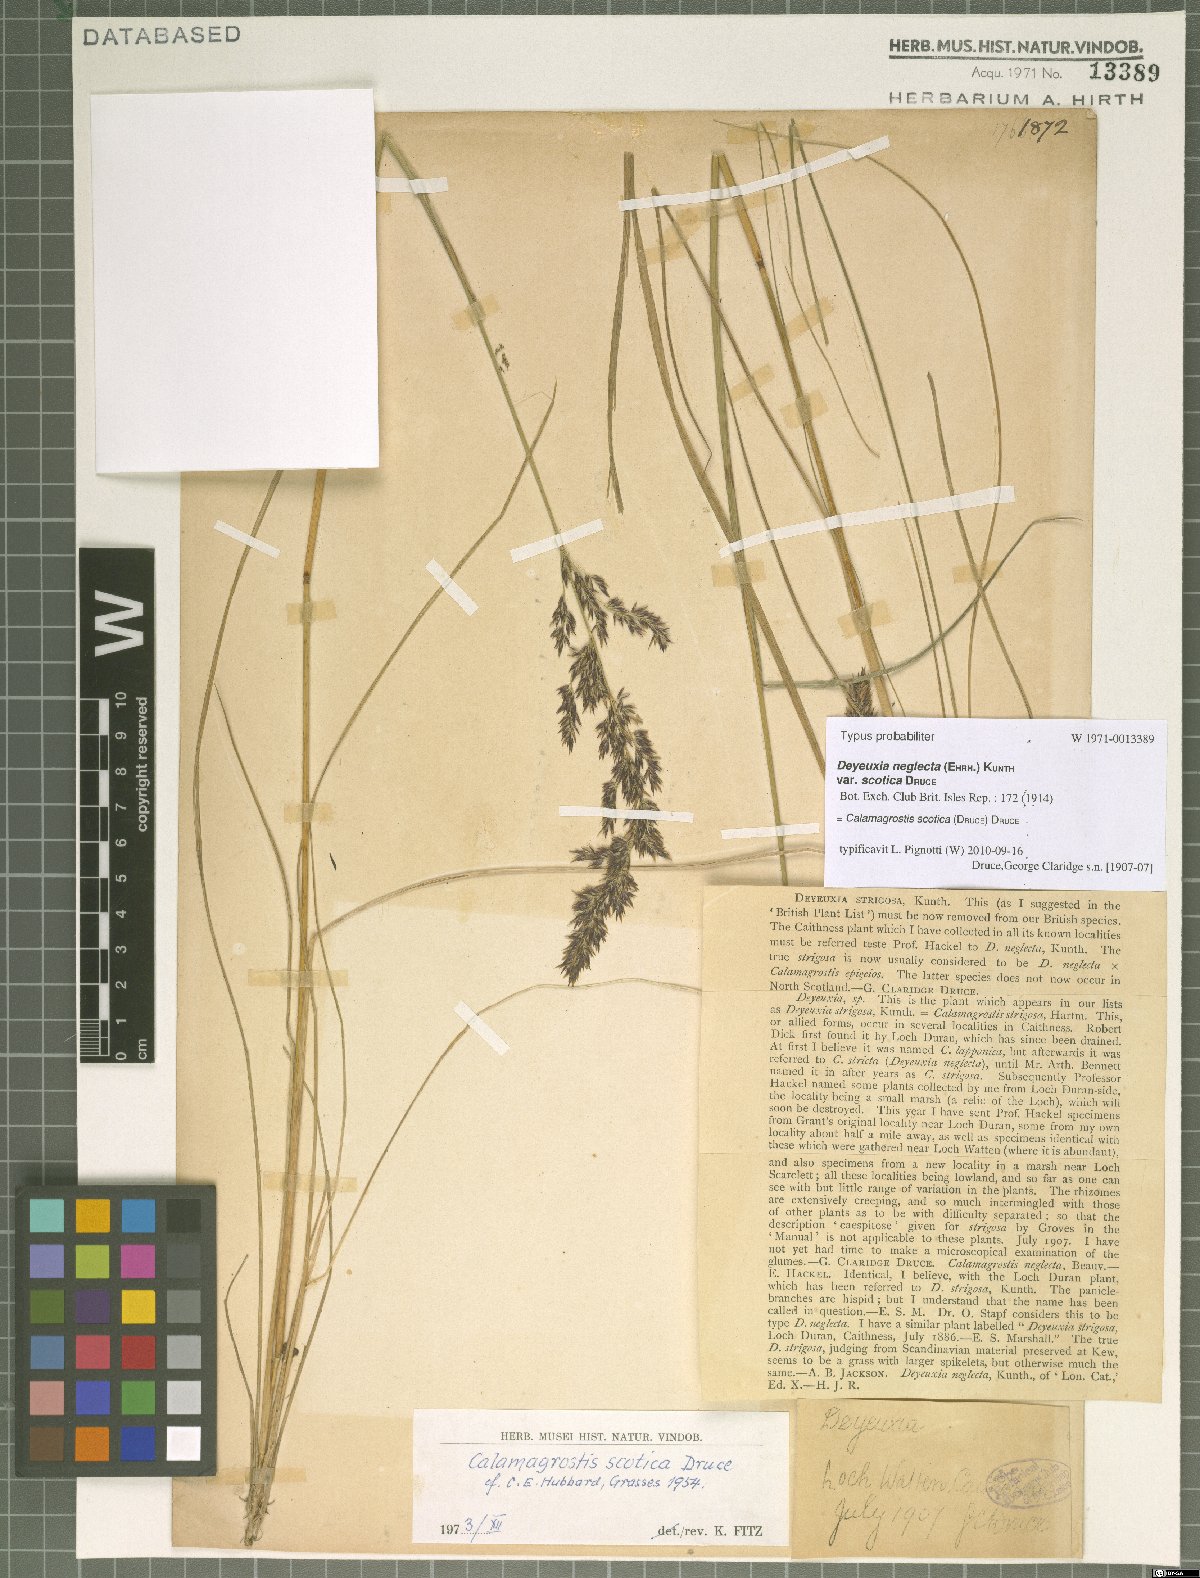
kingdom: Plantae
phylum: Tracheophyta
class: Liliopsida
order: Poales
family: Poaceae
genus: Calamagrostis
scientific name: Calamagrostis scotica
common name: Scottish small-reed
